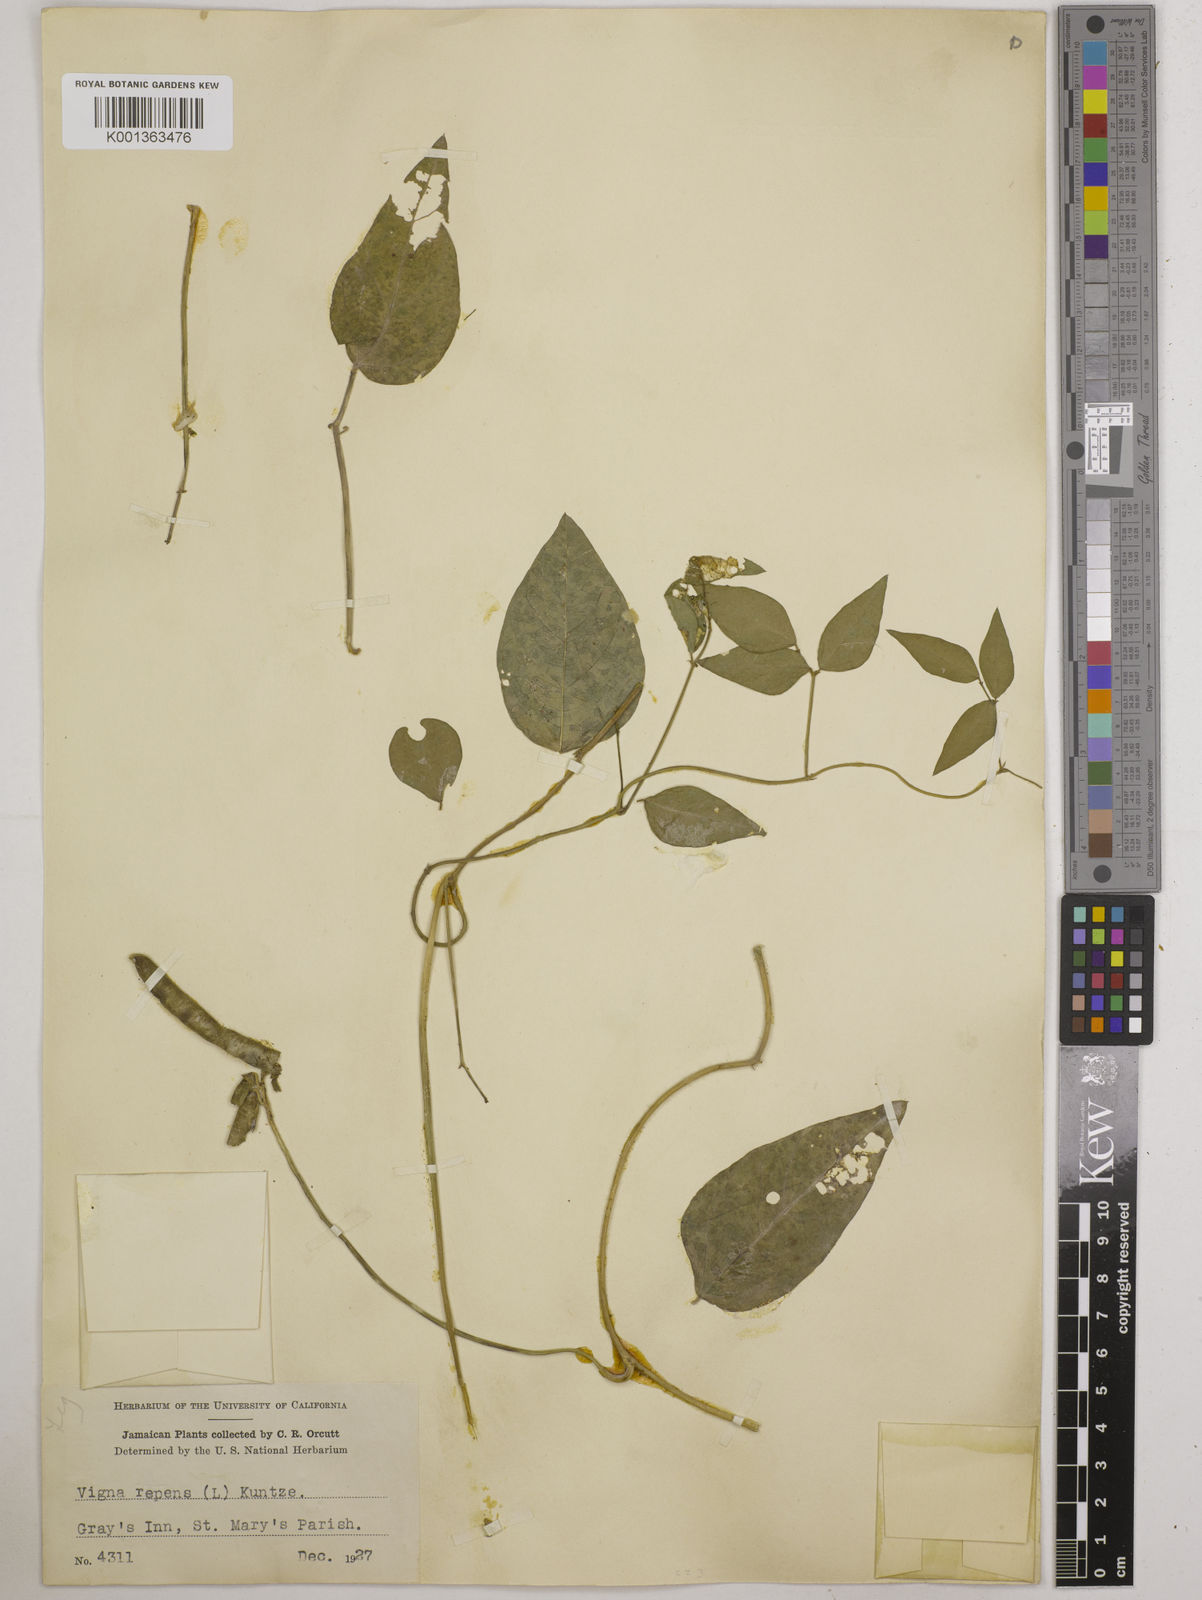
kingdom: Plantae
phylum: Tracheophyta
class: Magnoliopsida
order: Fabales
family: Fabaceae
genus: Vigna
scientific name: Vigna luteola
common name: Hairypod cowpea
